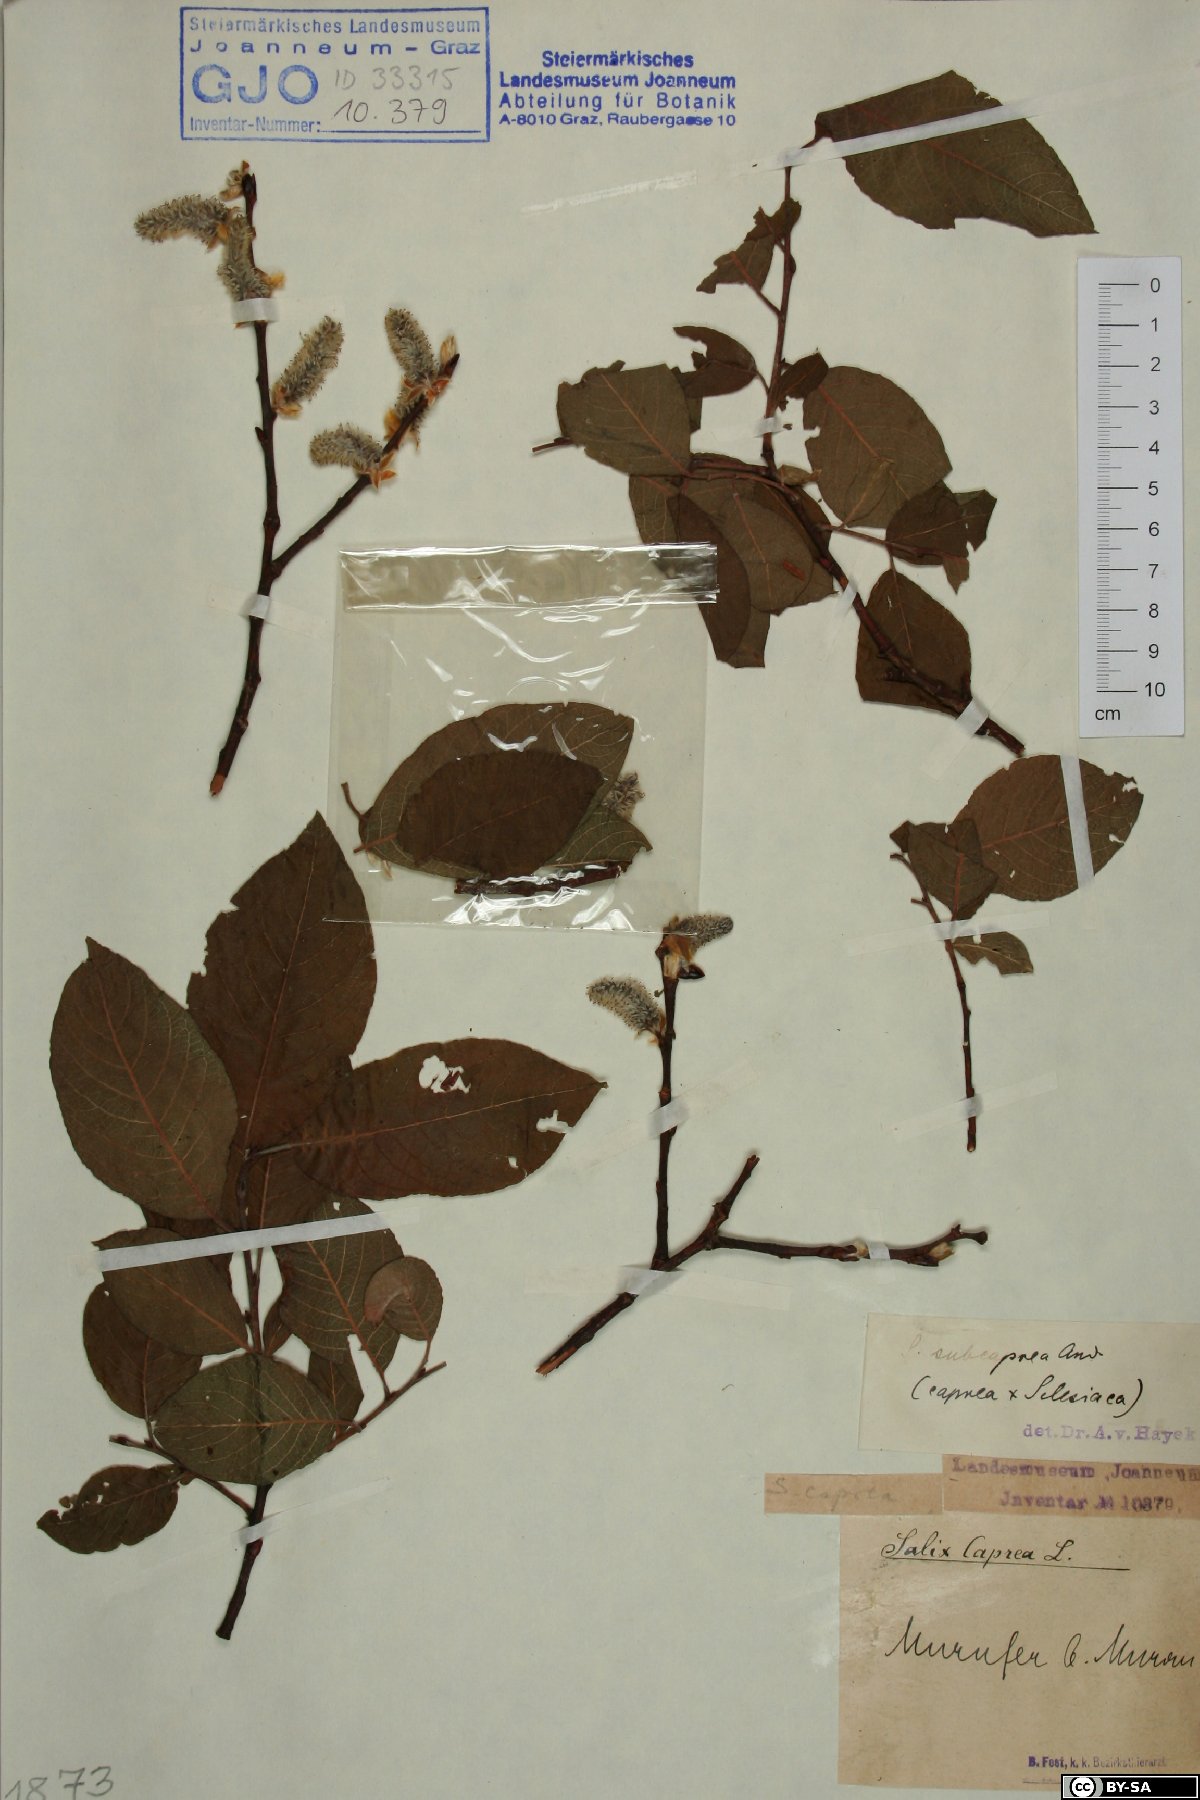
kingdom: Plantae
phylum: Tracheophyta
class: Magnoliopsida
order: Malpighiales
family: Salicaceae
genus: Salix
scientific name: Salix caprea
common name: Goat willow
